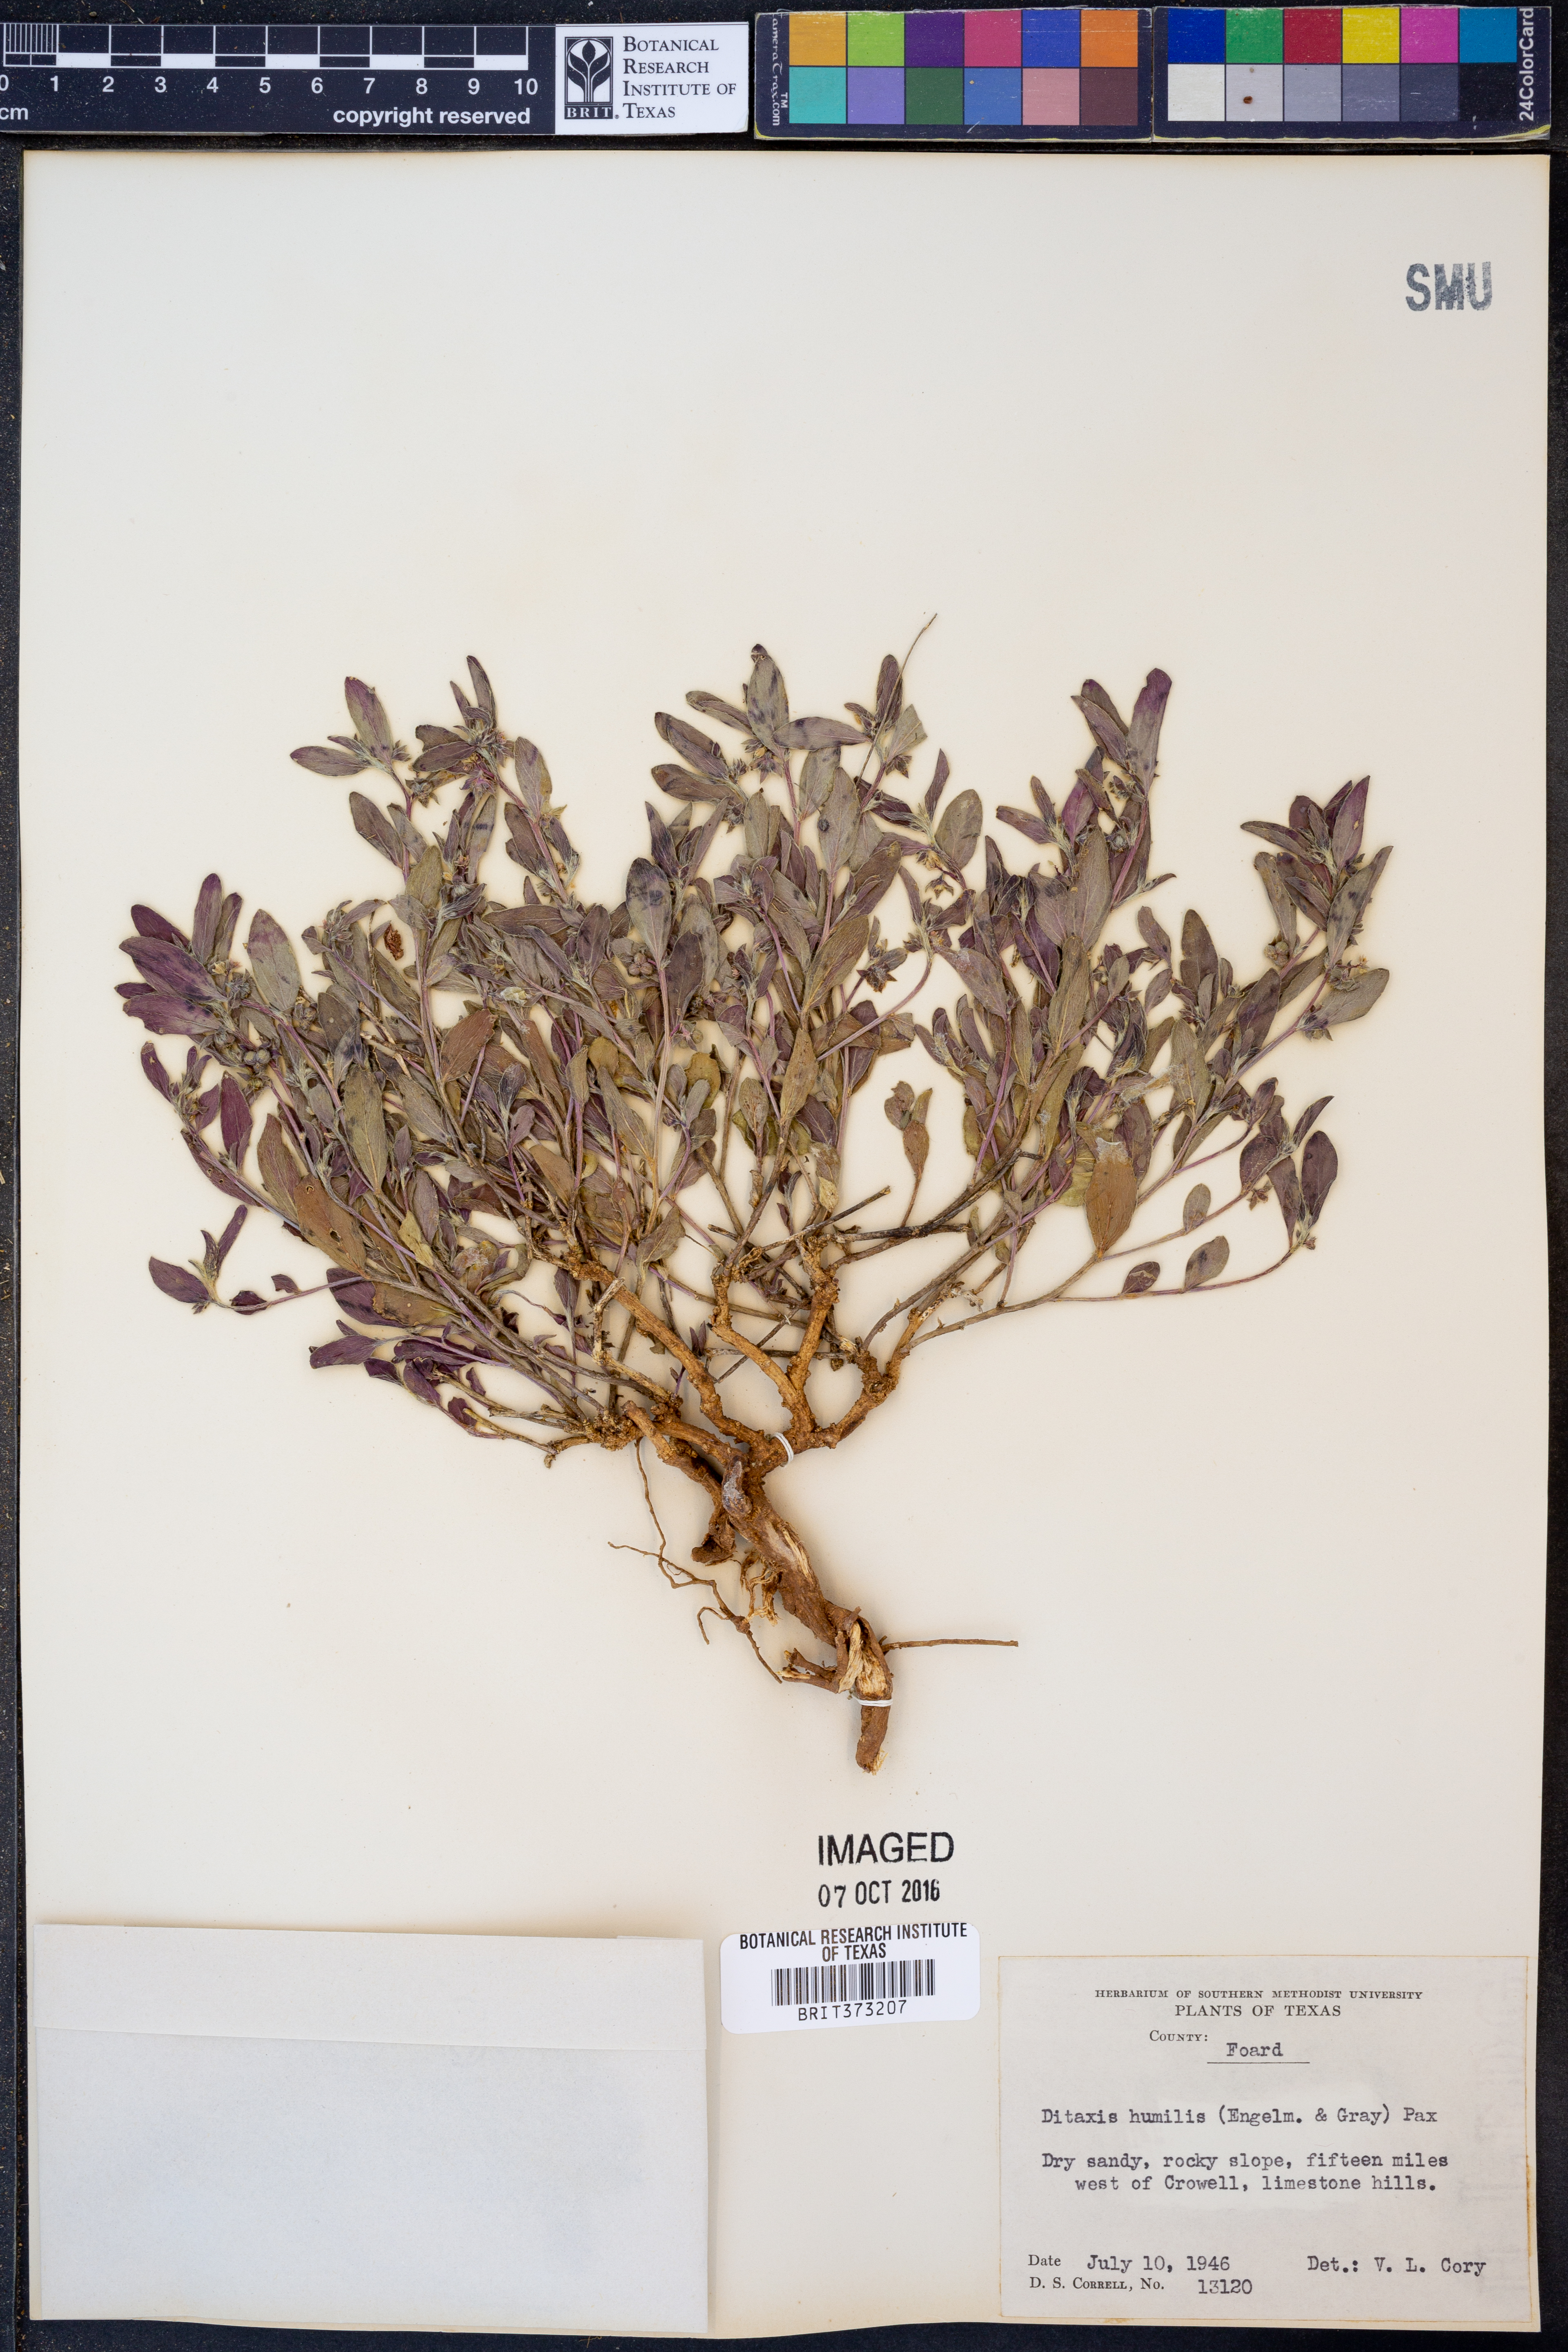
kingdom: Plantae
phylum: Tracheophyta
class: Magnoliopsida
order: Malpighiales
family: Euphorbiaceae
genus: Ditaxis
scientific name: Ditaxis humilis
